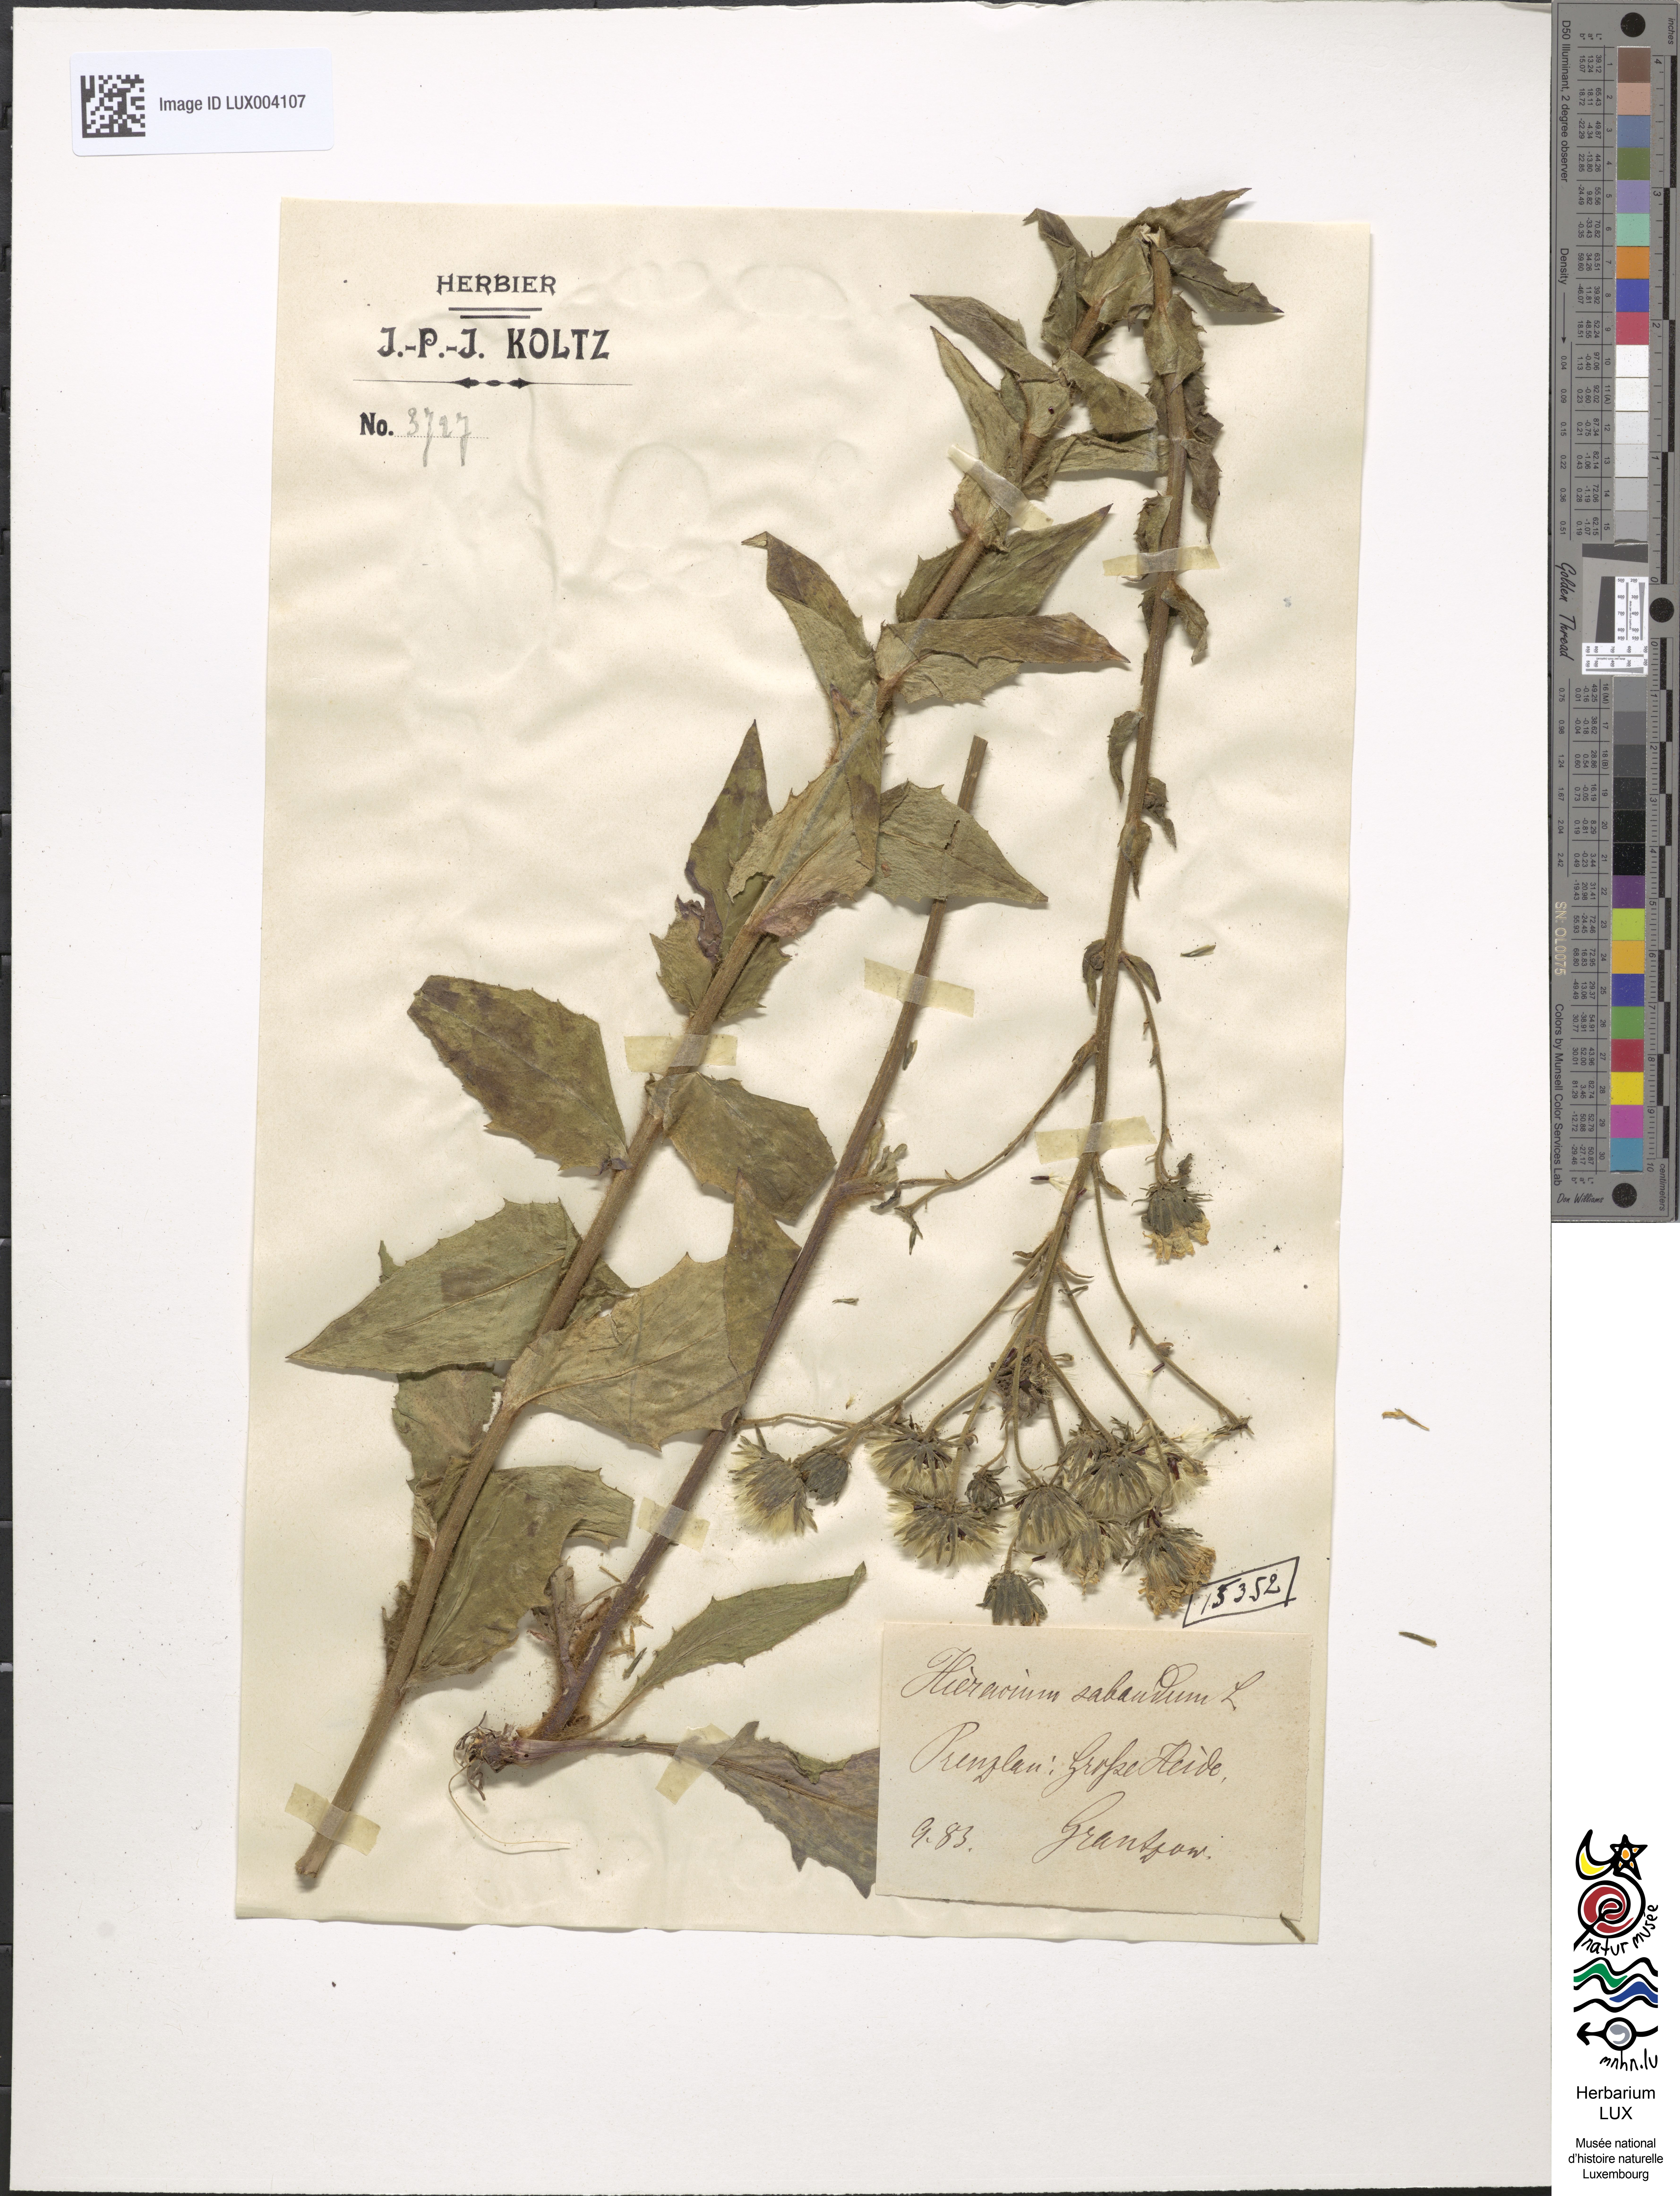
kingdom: Plantae
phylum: Tracheophyta
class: Magnoliopsida
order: Asterales
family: Asteraceae
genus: Hieracium
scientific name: Hieracium sabaudum
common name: New england hawkweed
